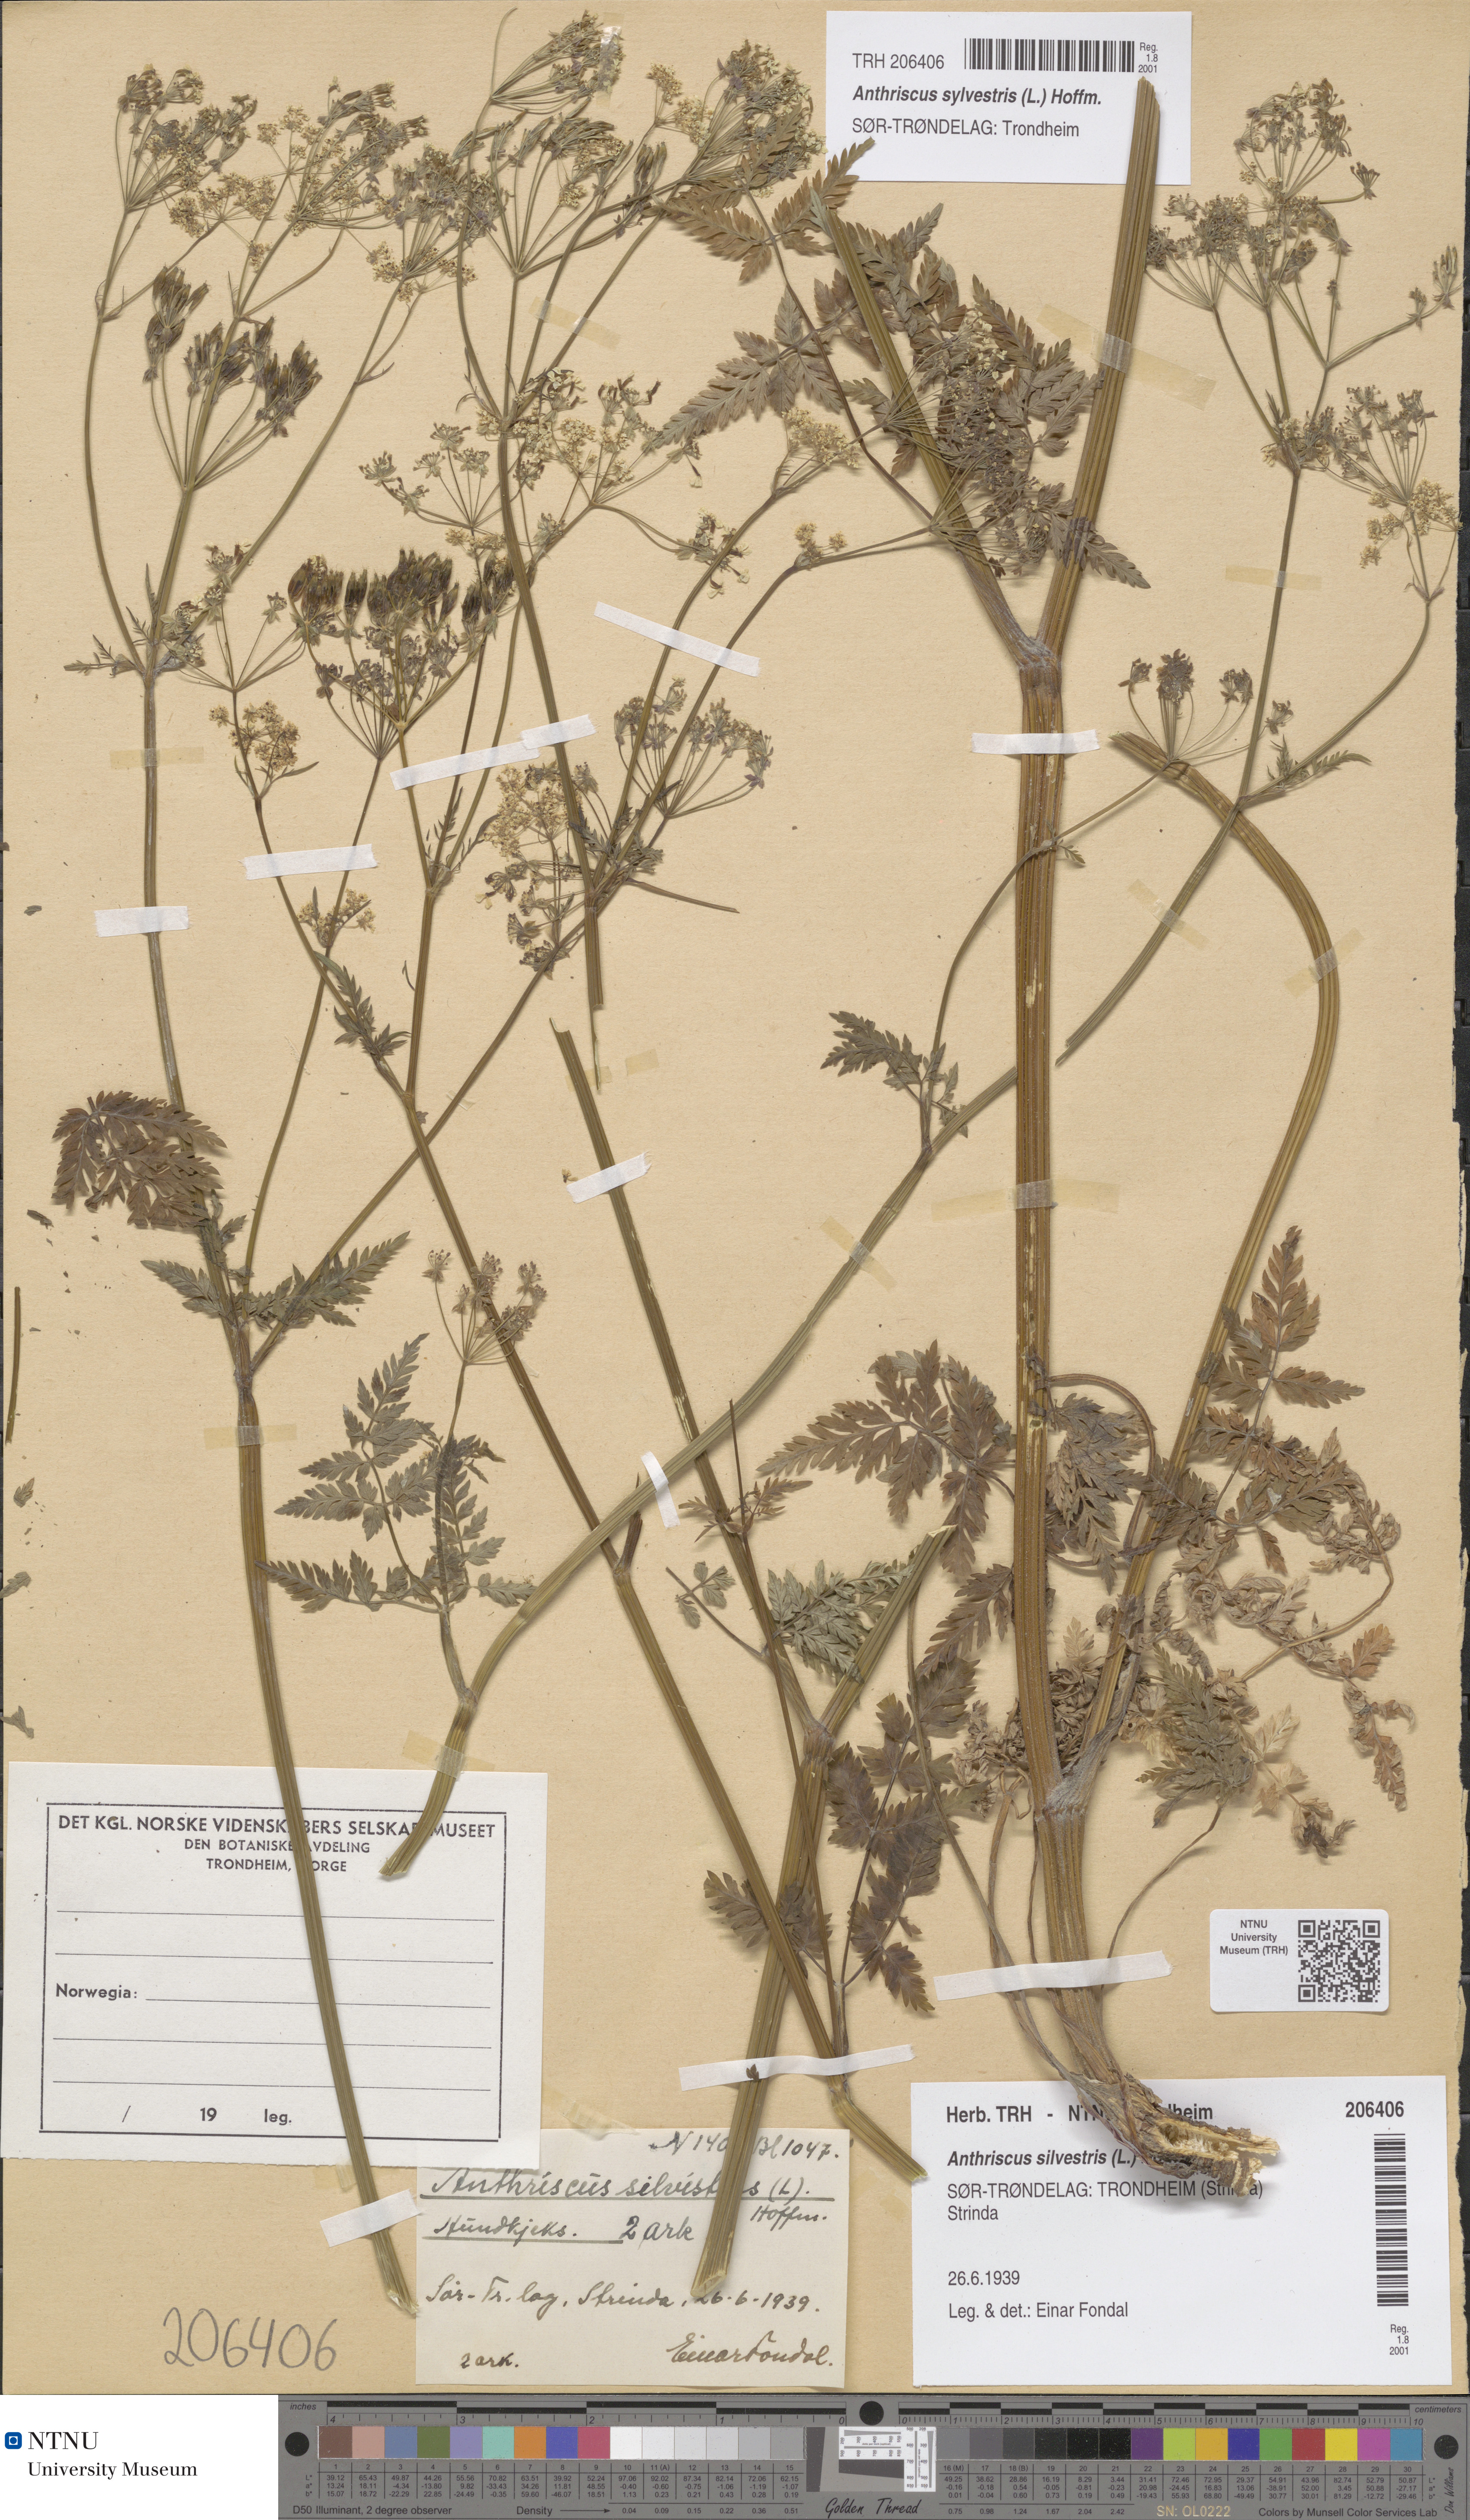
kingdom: Plantae
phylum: Tracheophyta
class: Magnoliopsida
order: Apiales
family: Apiaceae
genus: Anthriscus
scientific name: Anthriscus sylvestris
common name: Cow parsley
